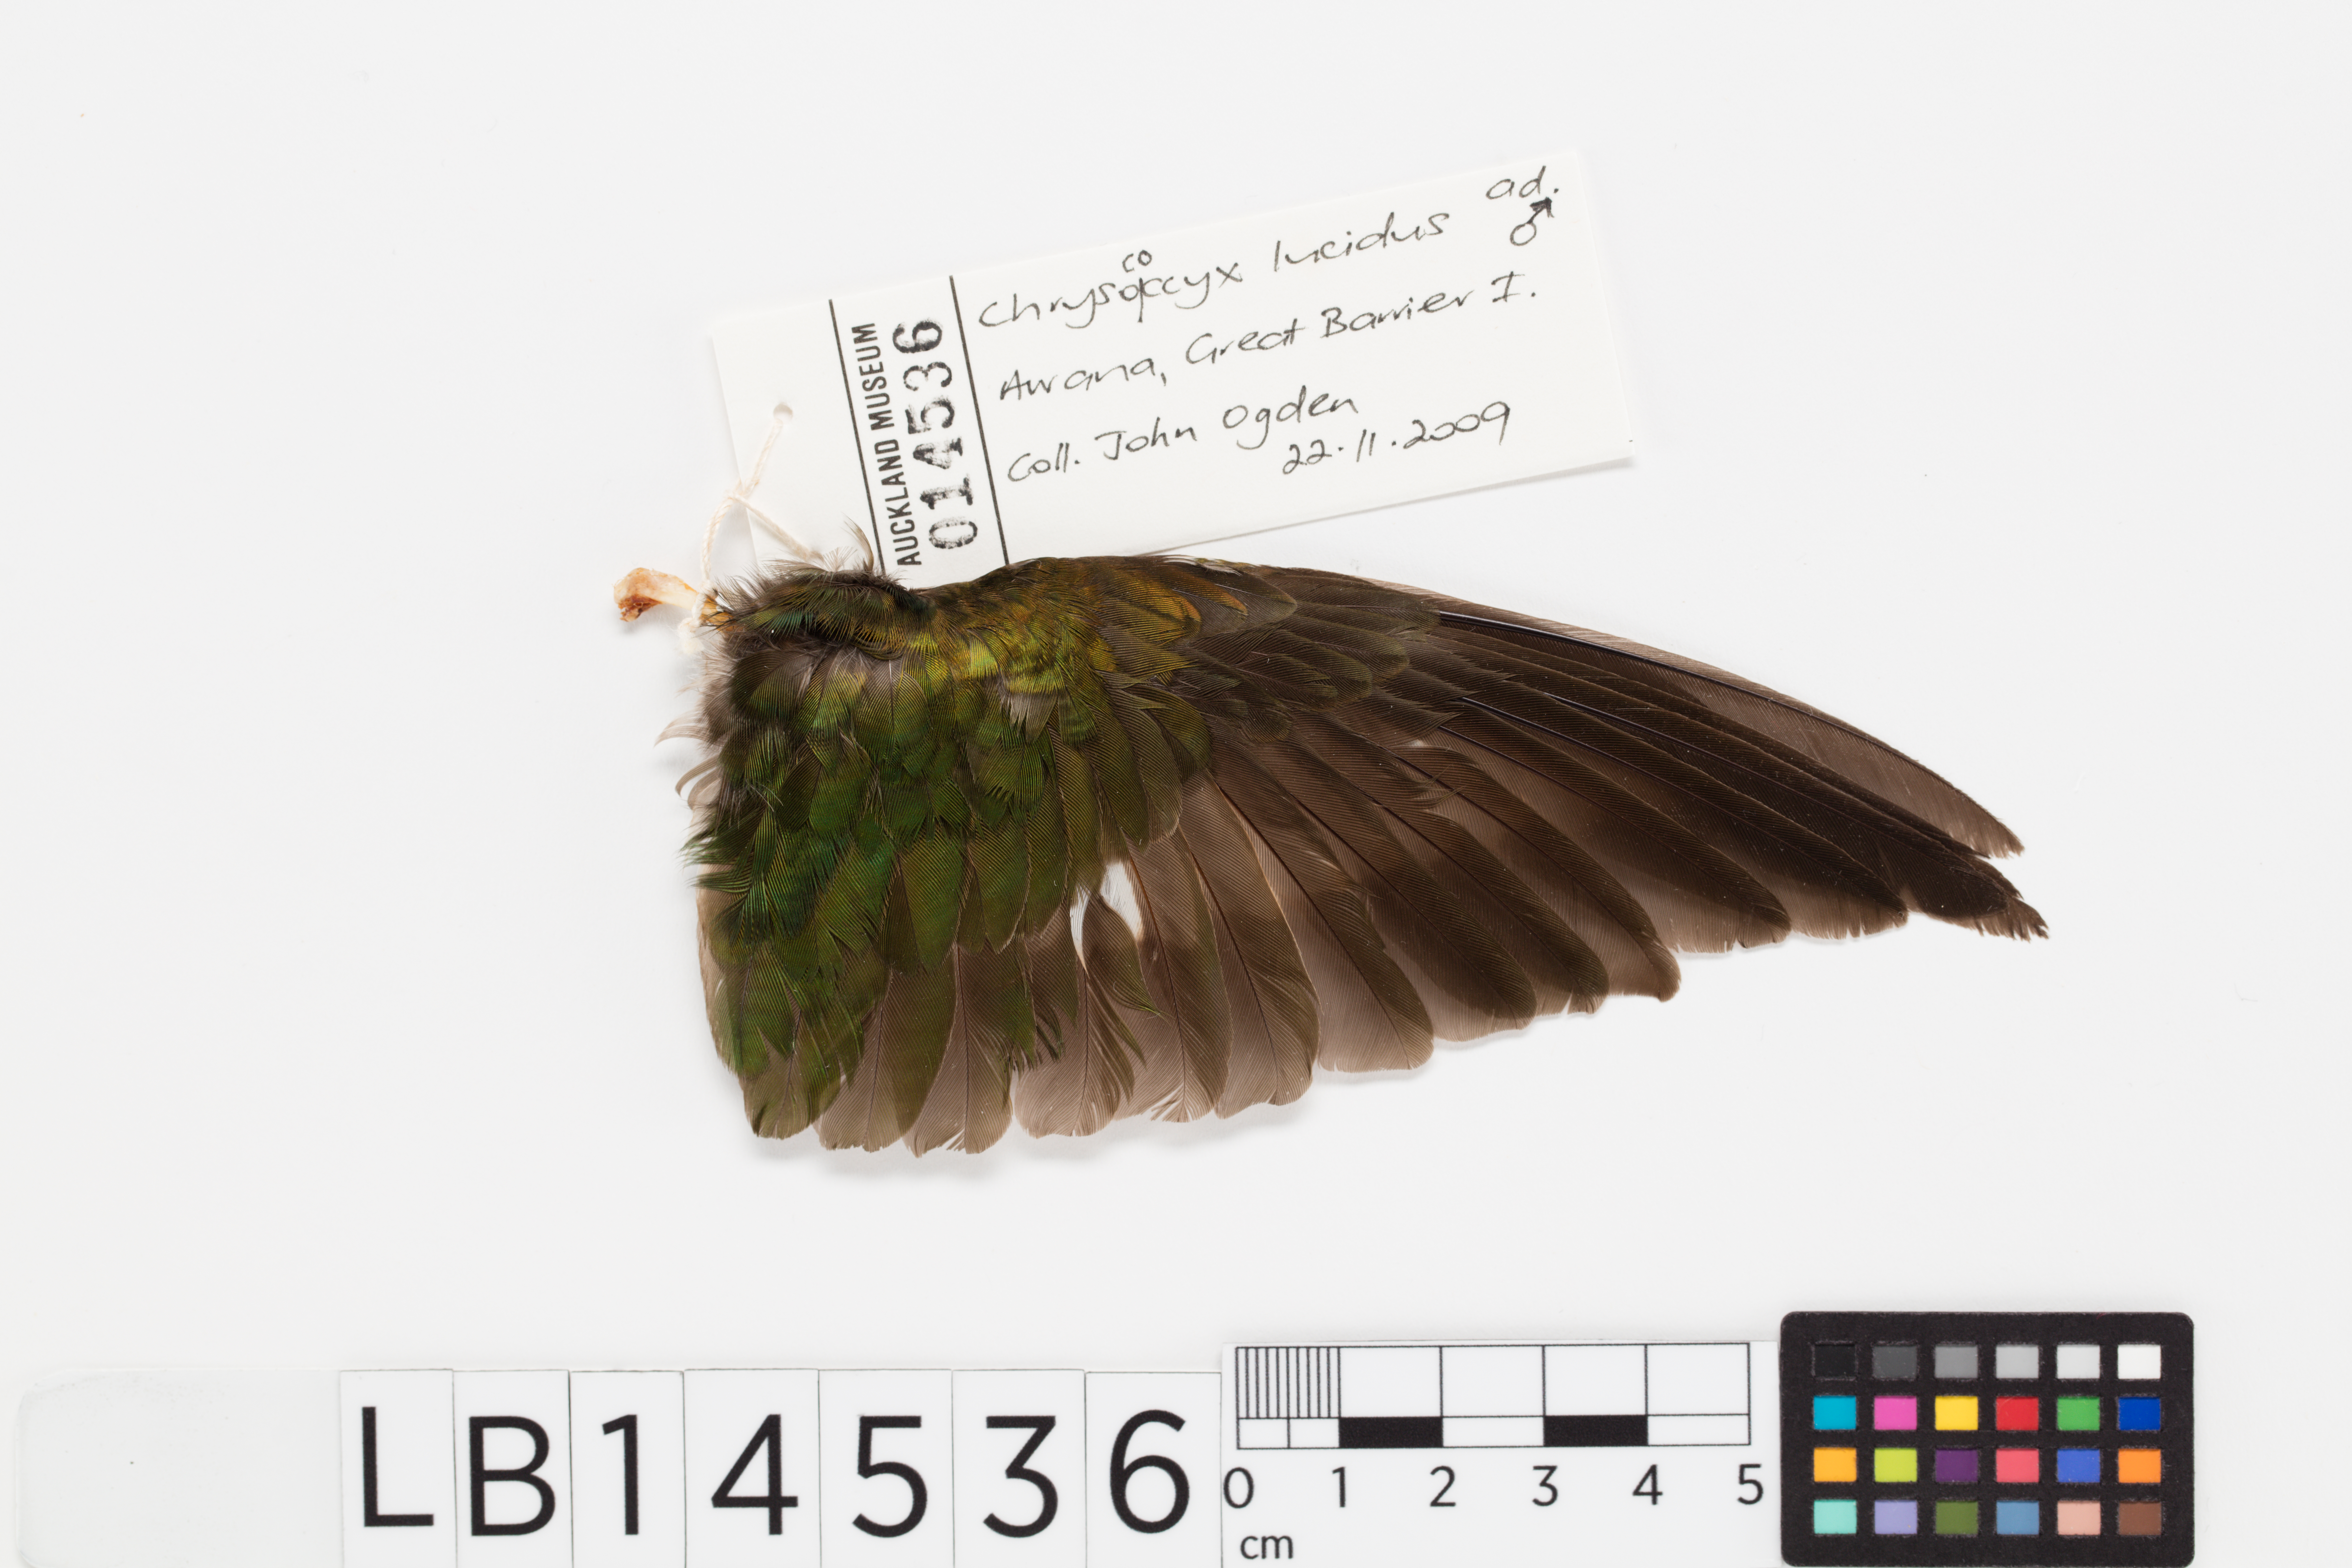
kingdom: Animalia
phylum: Chordata
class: Aves
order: Cuculiformes
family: Cuculidae
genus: Chrysococcyx
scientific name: Chrysococcyx lucidus
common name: Shining bronze cuckoo
